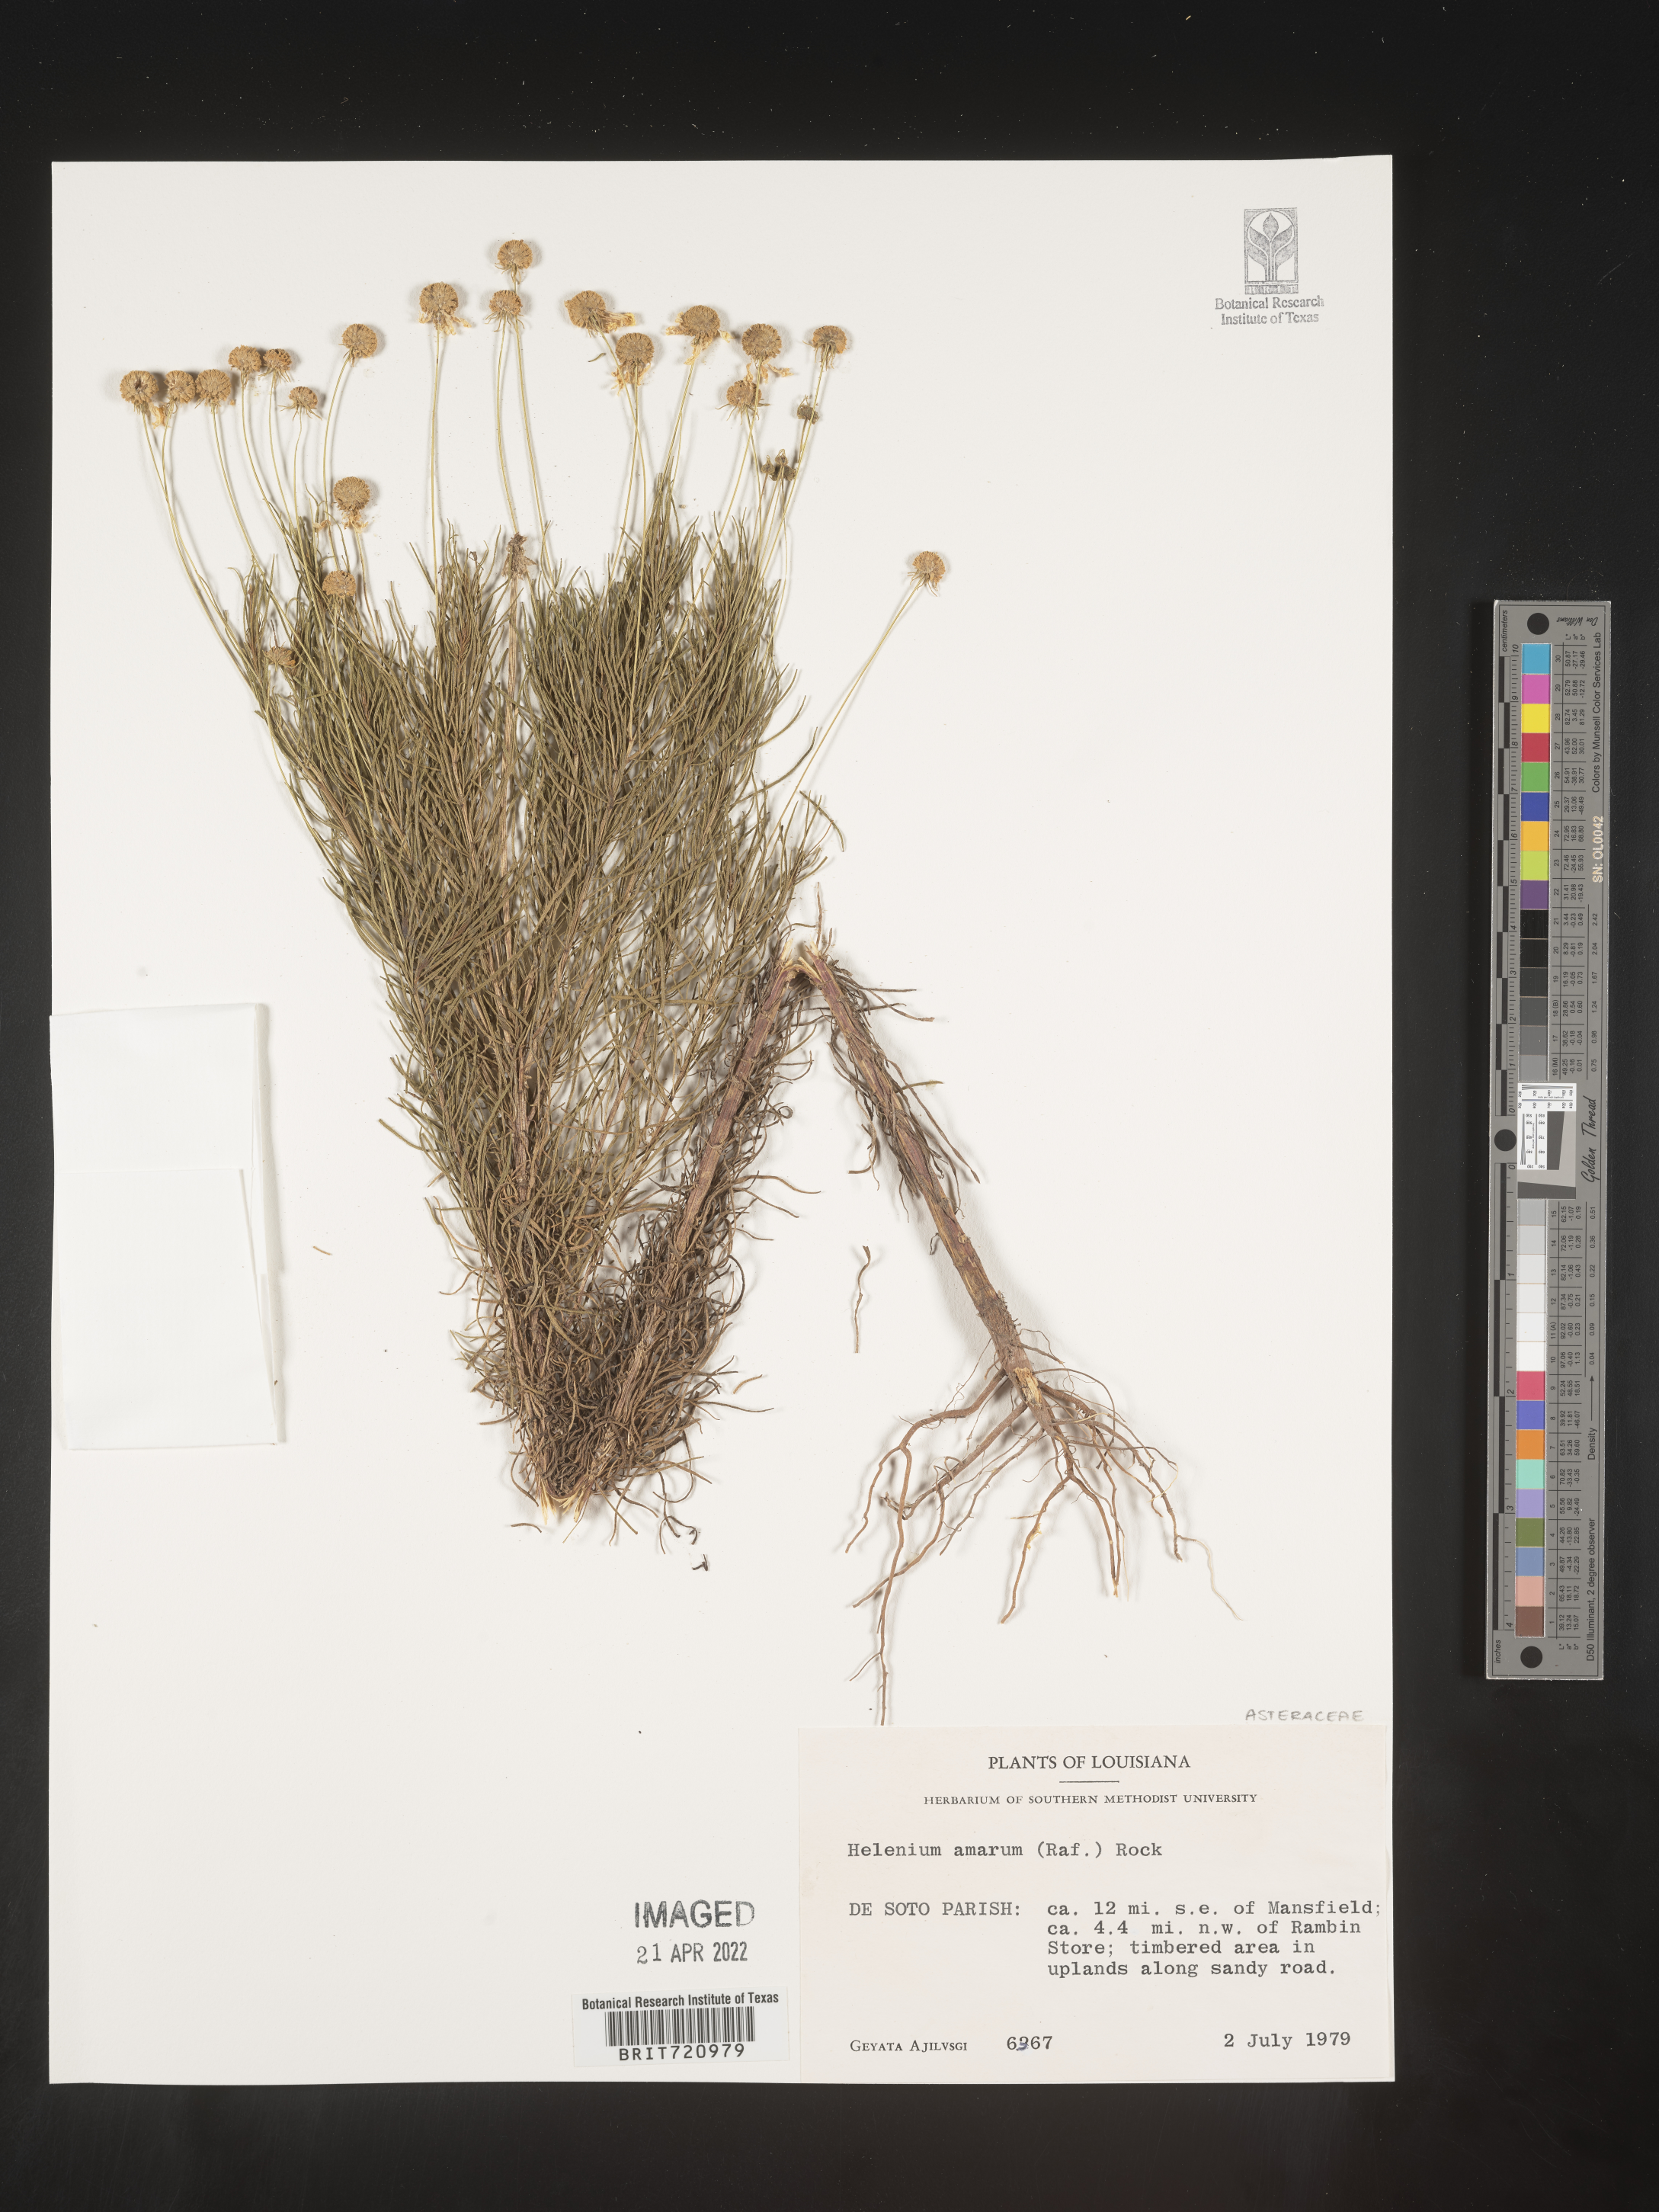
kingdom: Plantae
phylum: Tracheophyta
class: Magnoliopsida
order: Asterales
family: Asteraceae
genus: Helenium
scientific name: Helenium amarum
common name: Bitter sneezeweed
